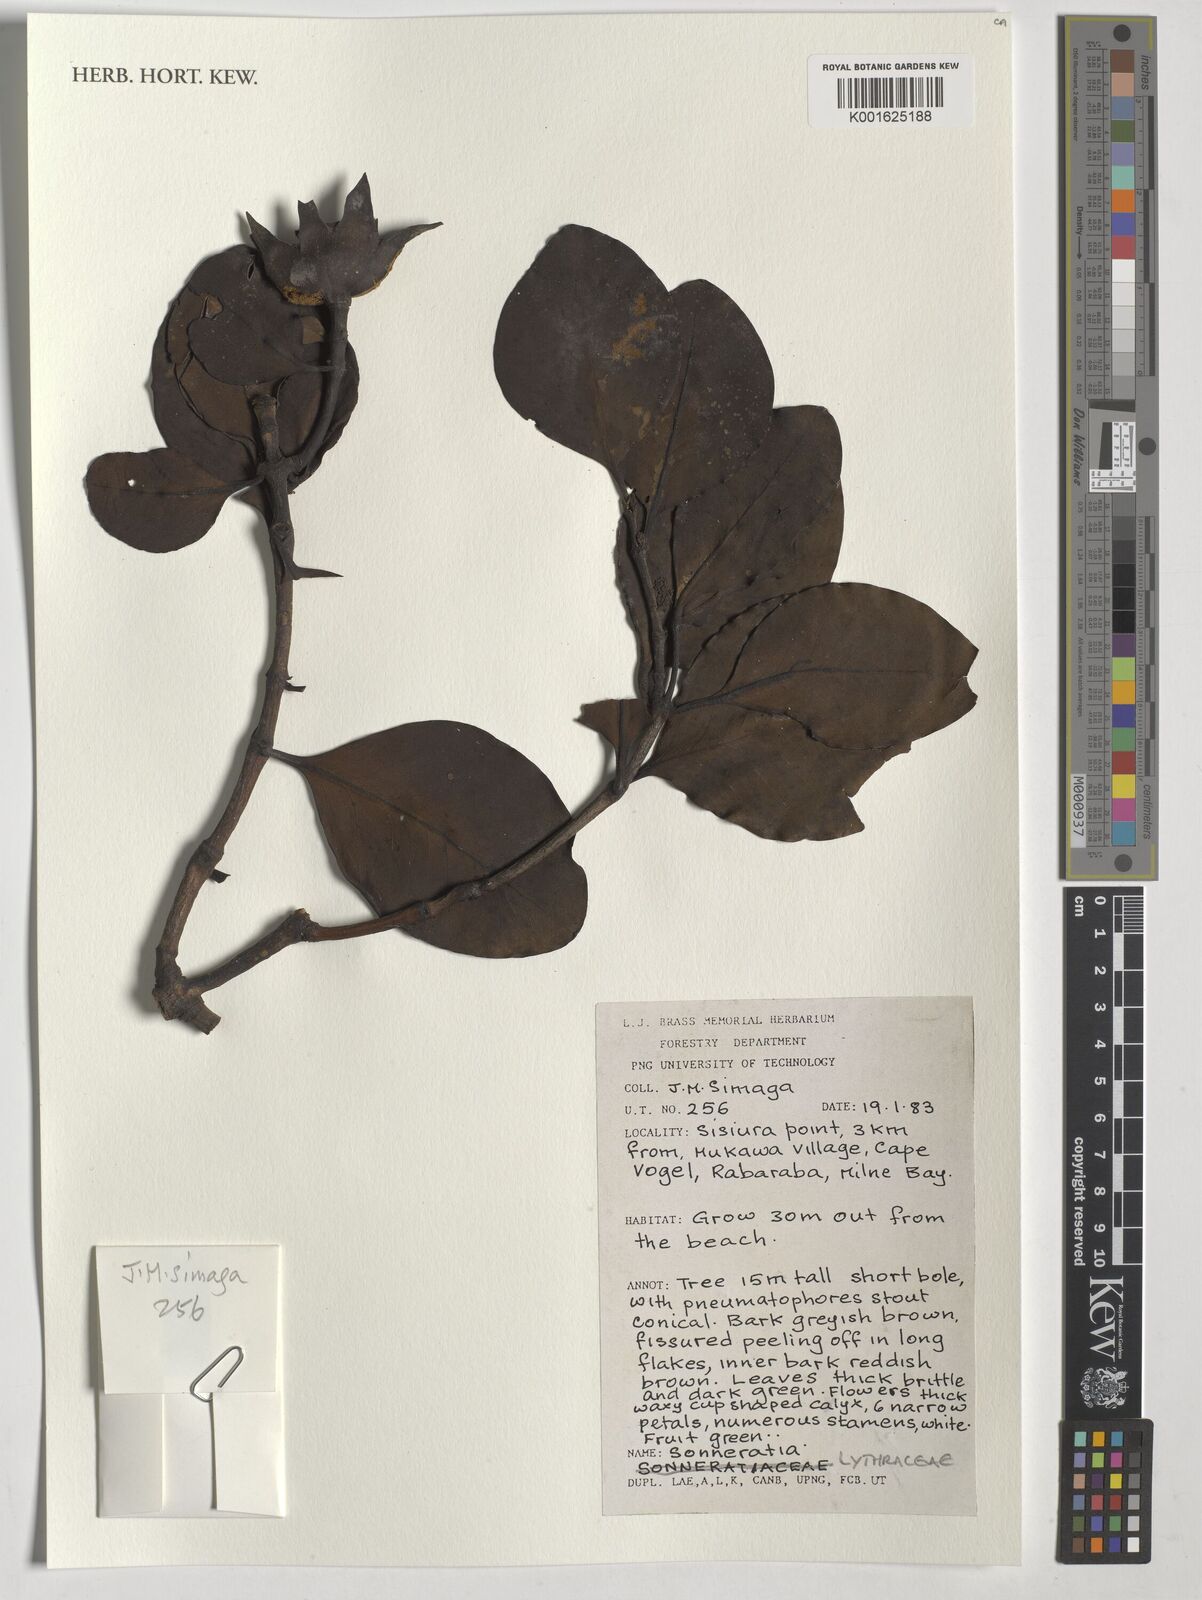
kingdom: Plantae
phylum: Tracheophyta
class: Magnoliopsida
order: Myrtales
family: Lythraceae
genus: Sonneratia
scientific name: Sonneratia
